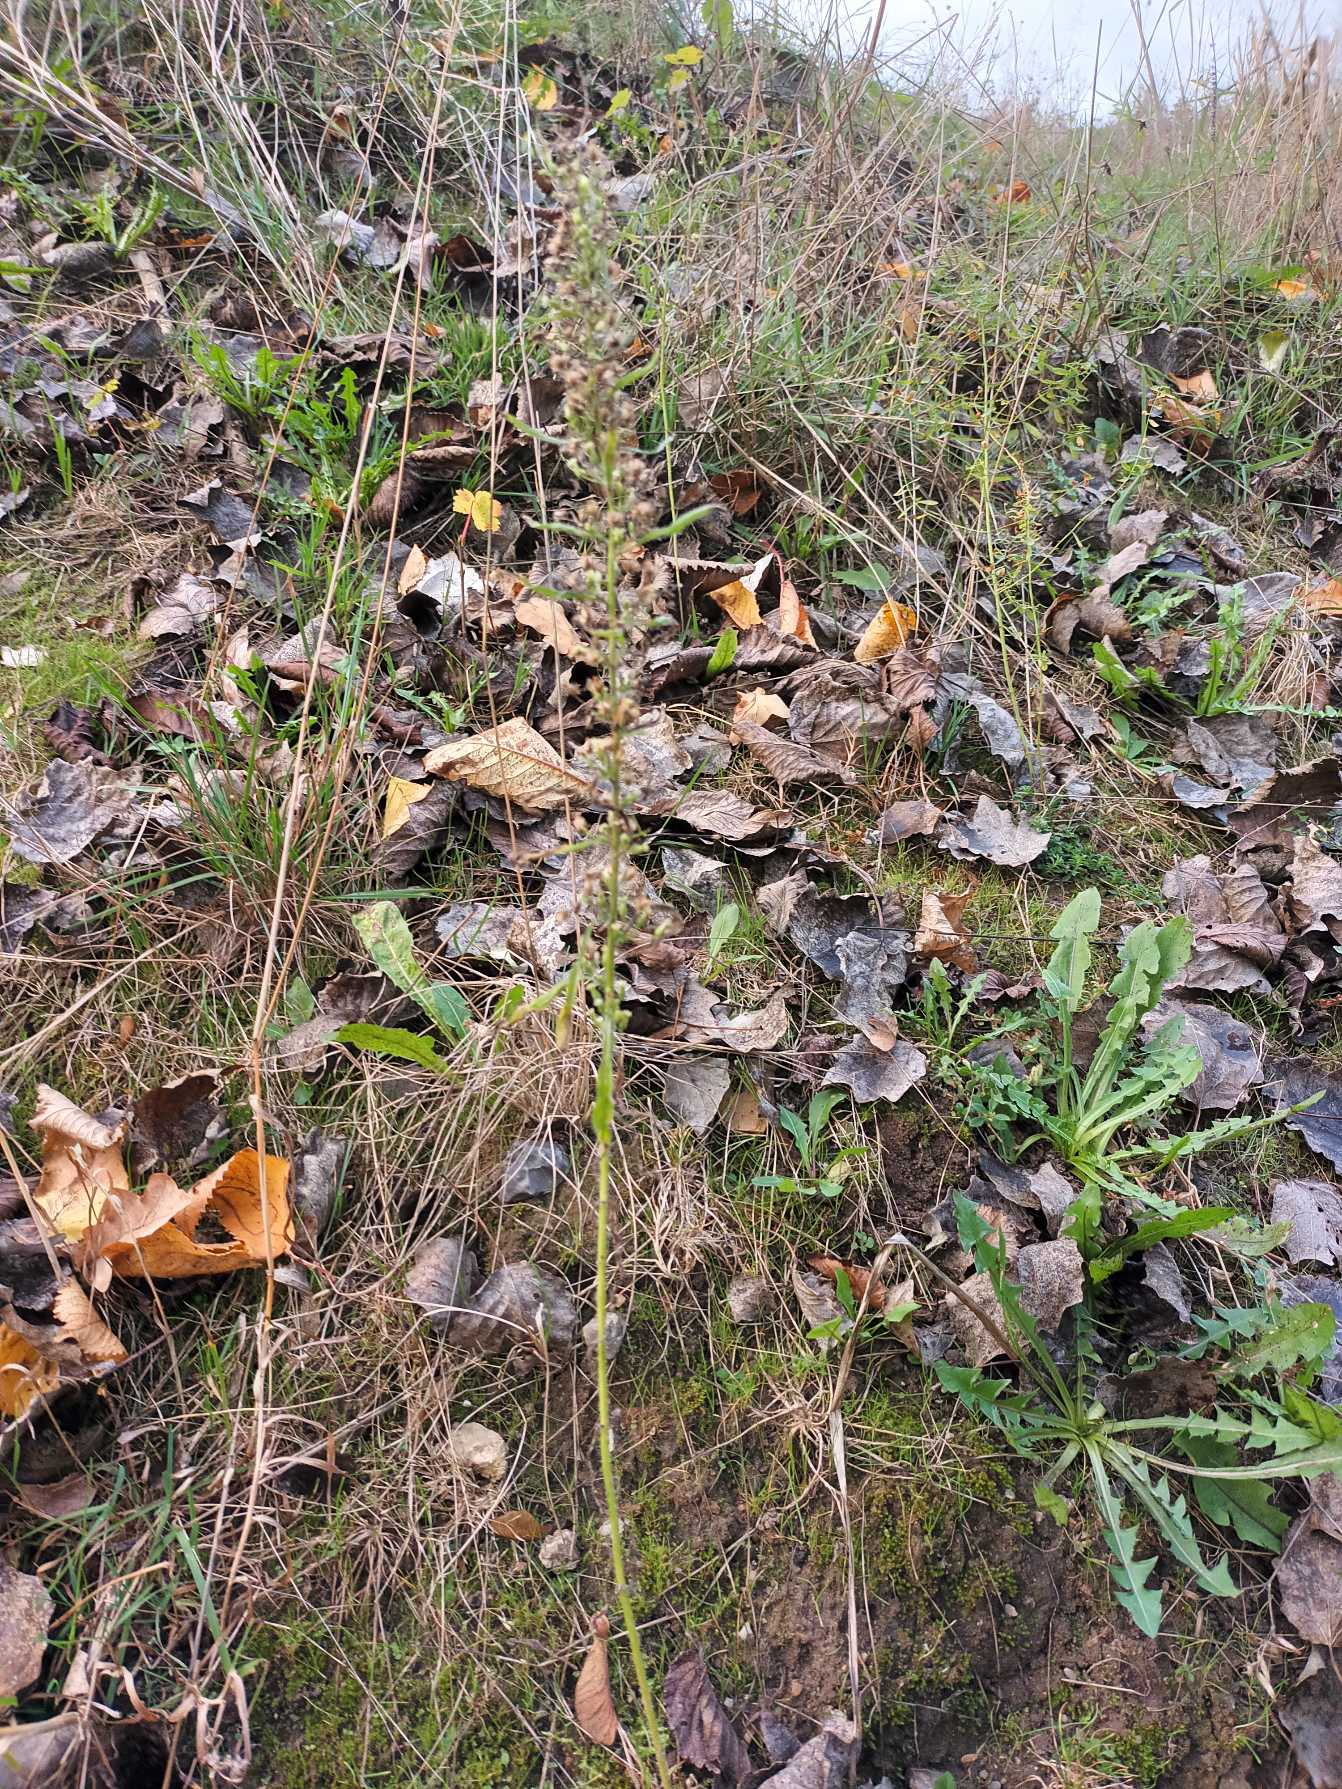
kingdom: Plantae
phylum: Tracheophyta
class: Magnoliopsida
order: Asterales
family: Asteraceae
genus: Erigeron
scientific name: Erigeron canadensis
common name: Kanadisk bakkestjerne
